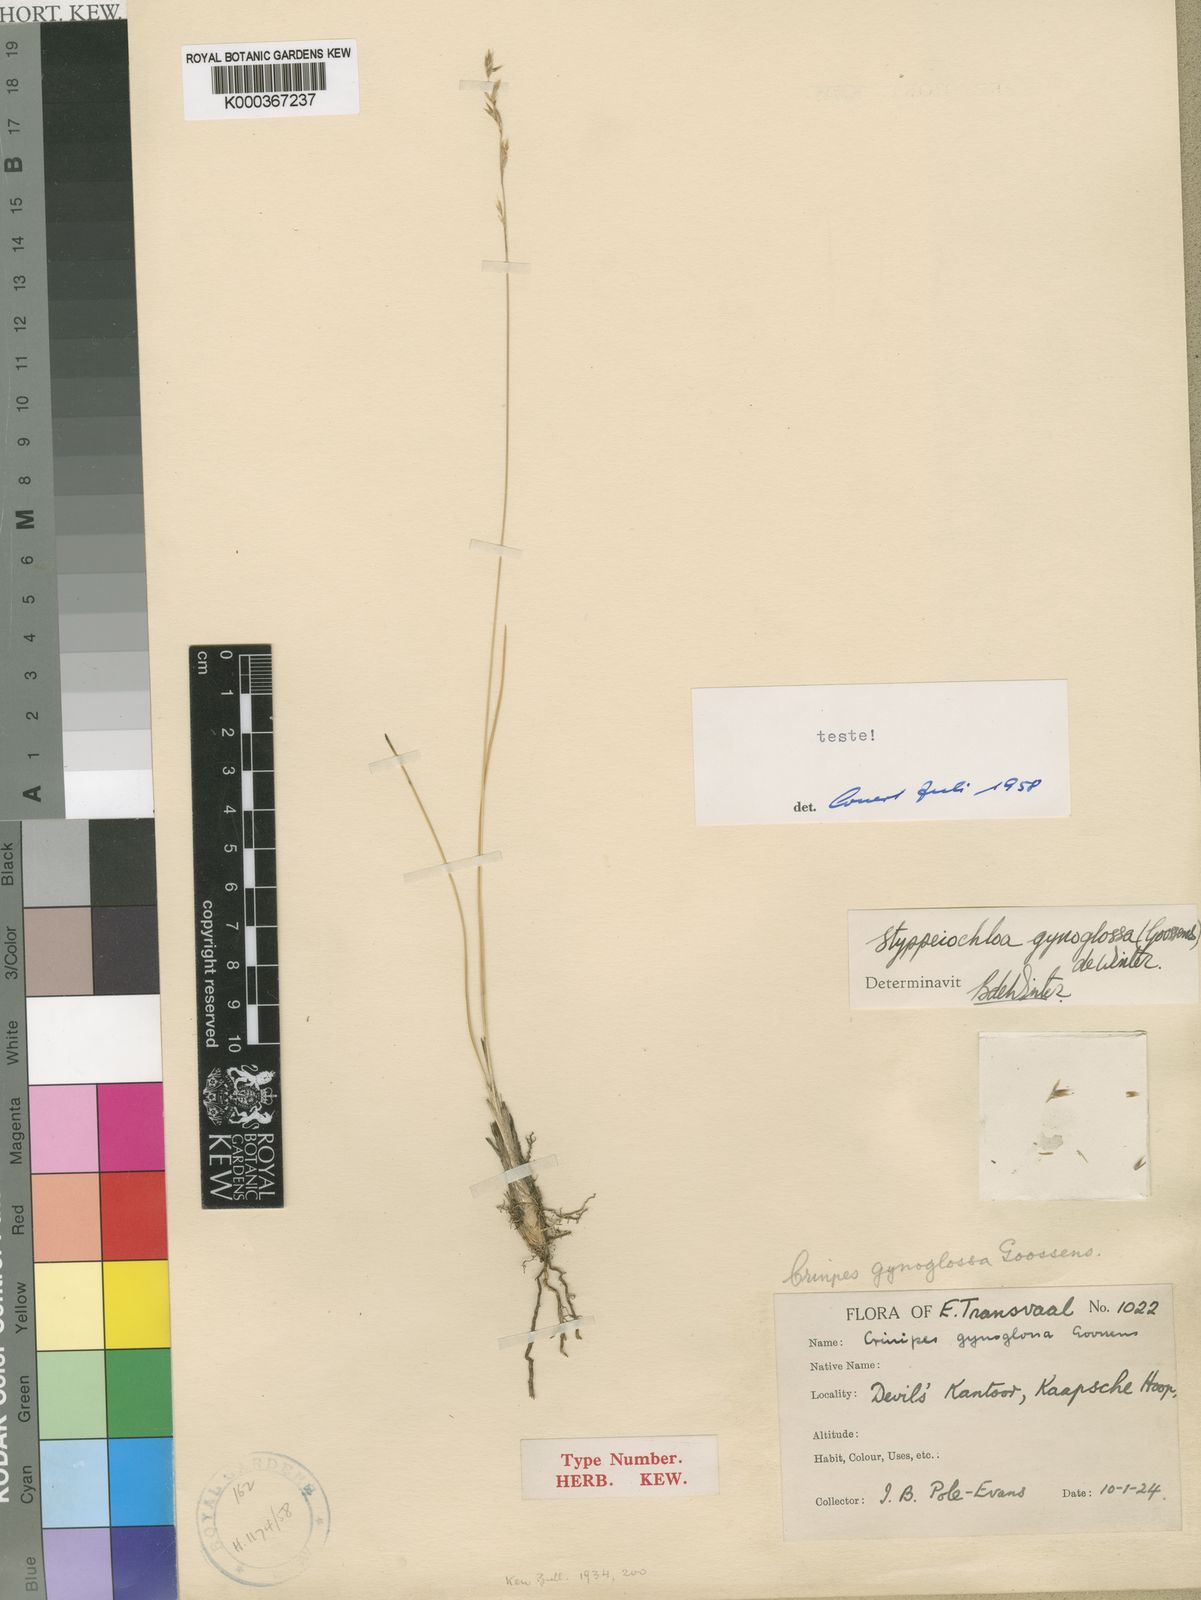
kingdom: Plantae
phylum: Tracheophyta
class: Liliopsida
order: Poales
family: Poaceae
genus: Styppeiochloa
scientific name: Styppeiochloa gynoglossa
